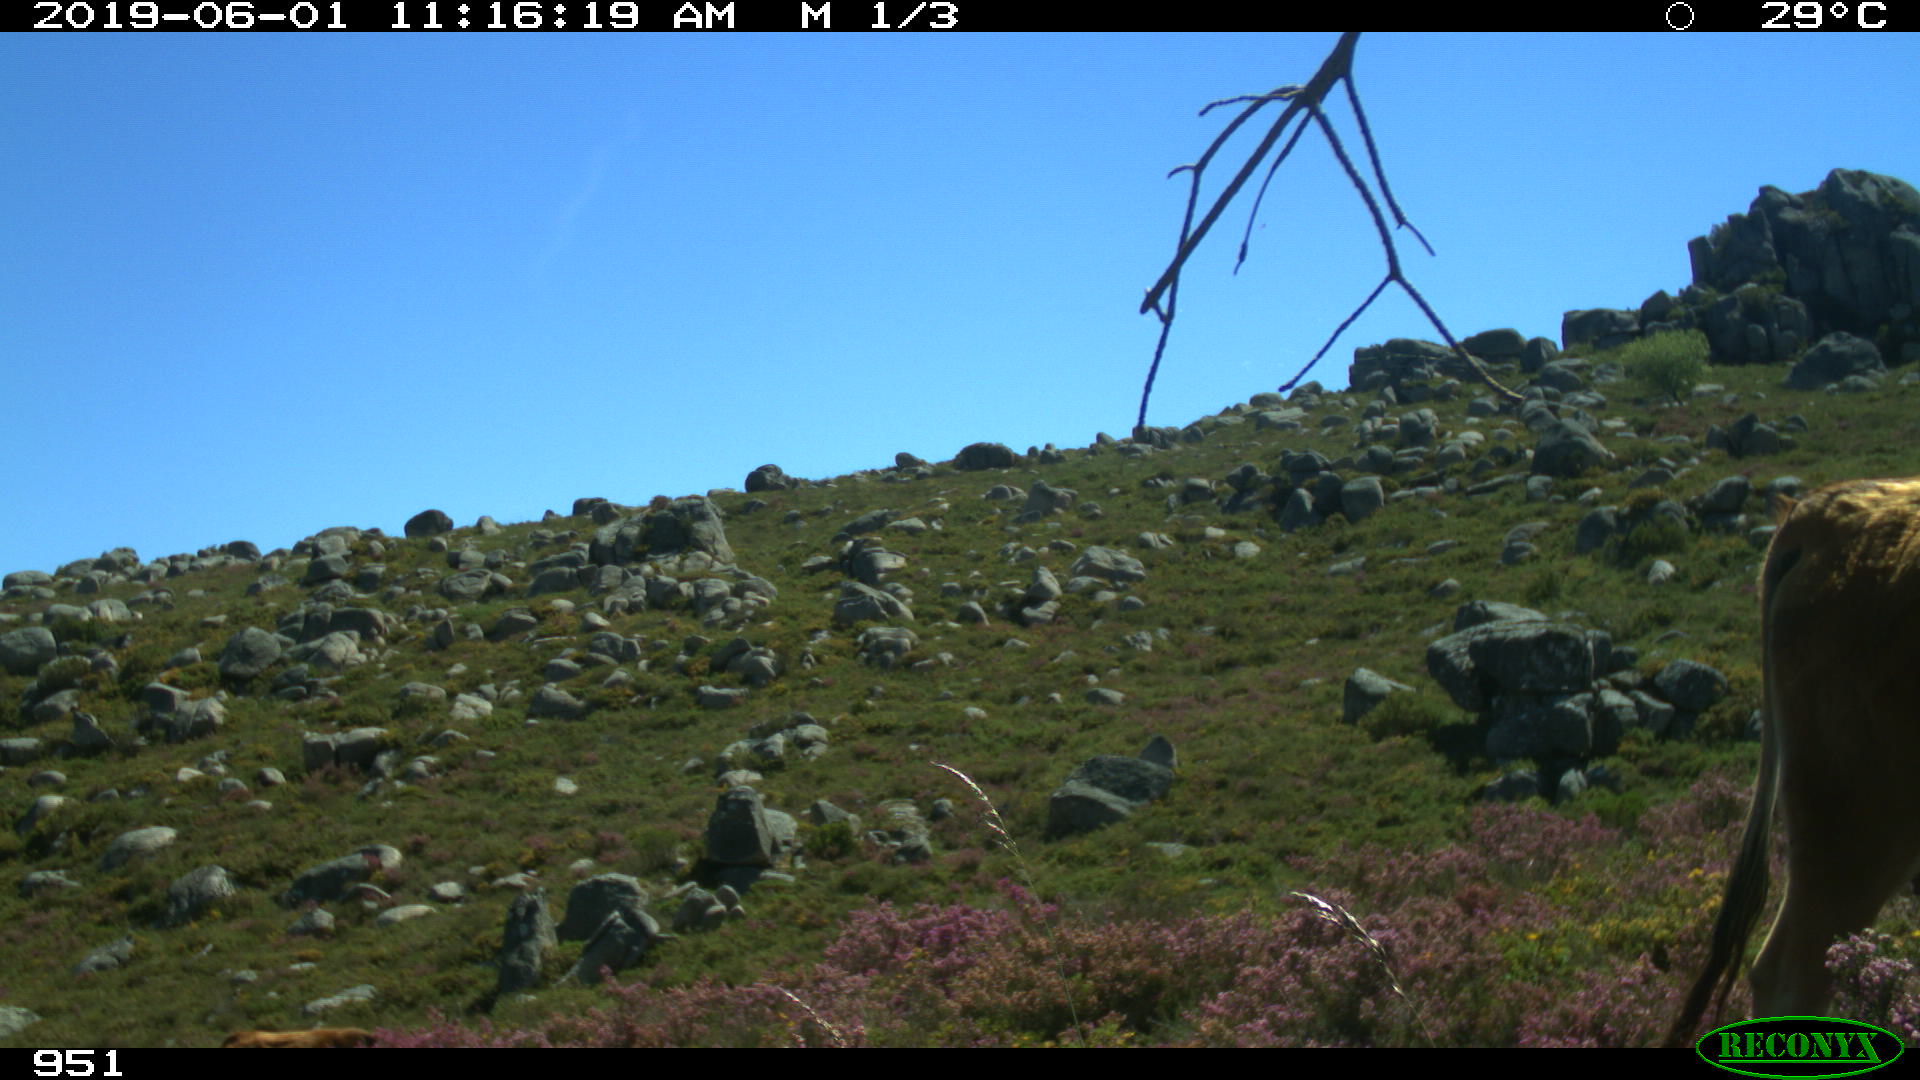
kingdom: Animalia
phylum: Chordata
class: Mammalia
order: Artiodactyla
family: Bovidae
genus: Bos
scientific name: Bos taurus
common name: Domesticated cattle
